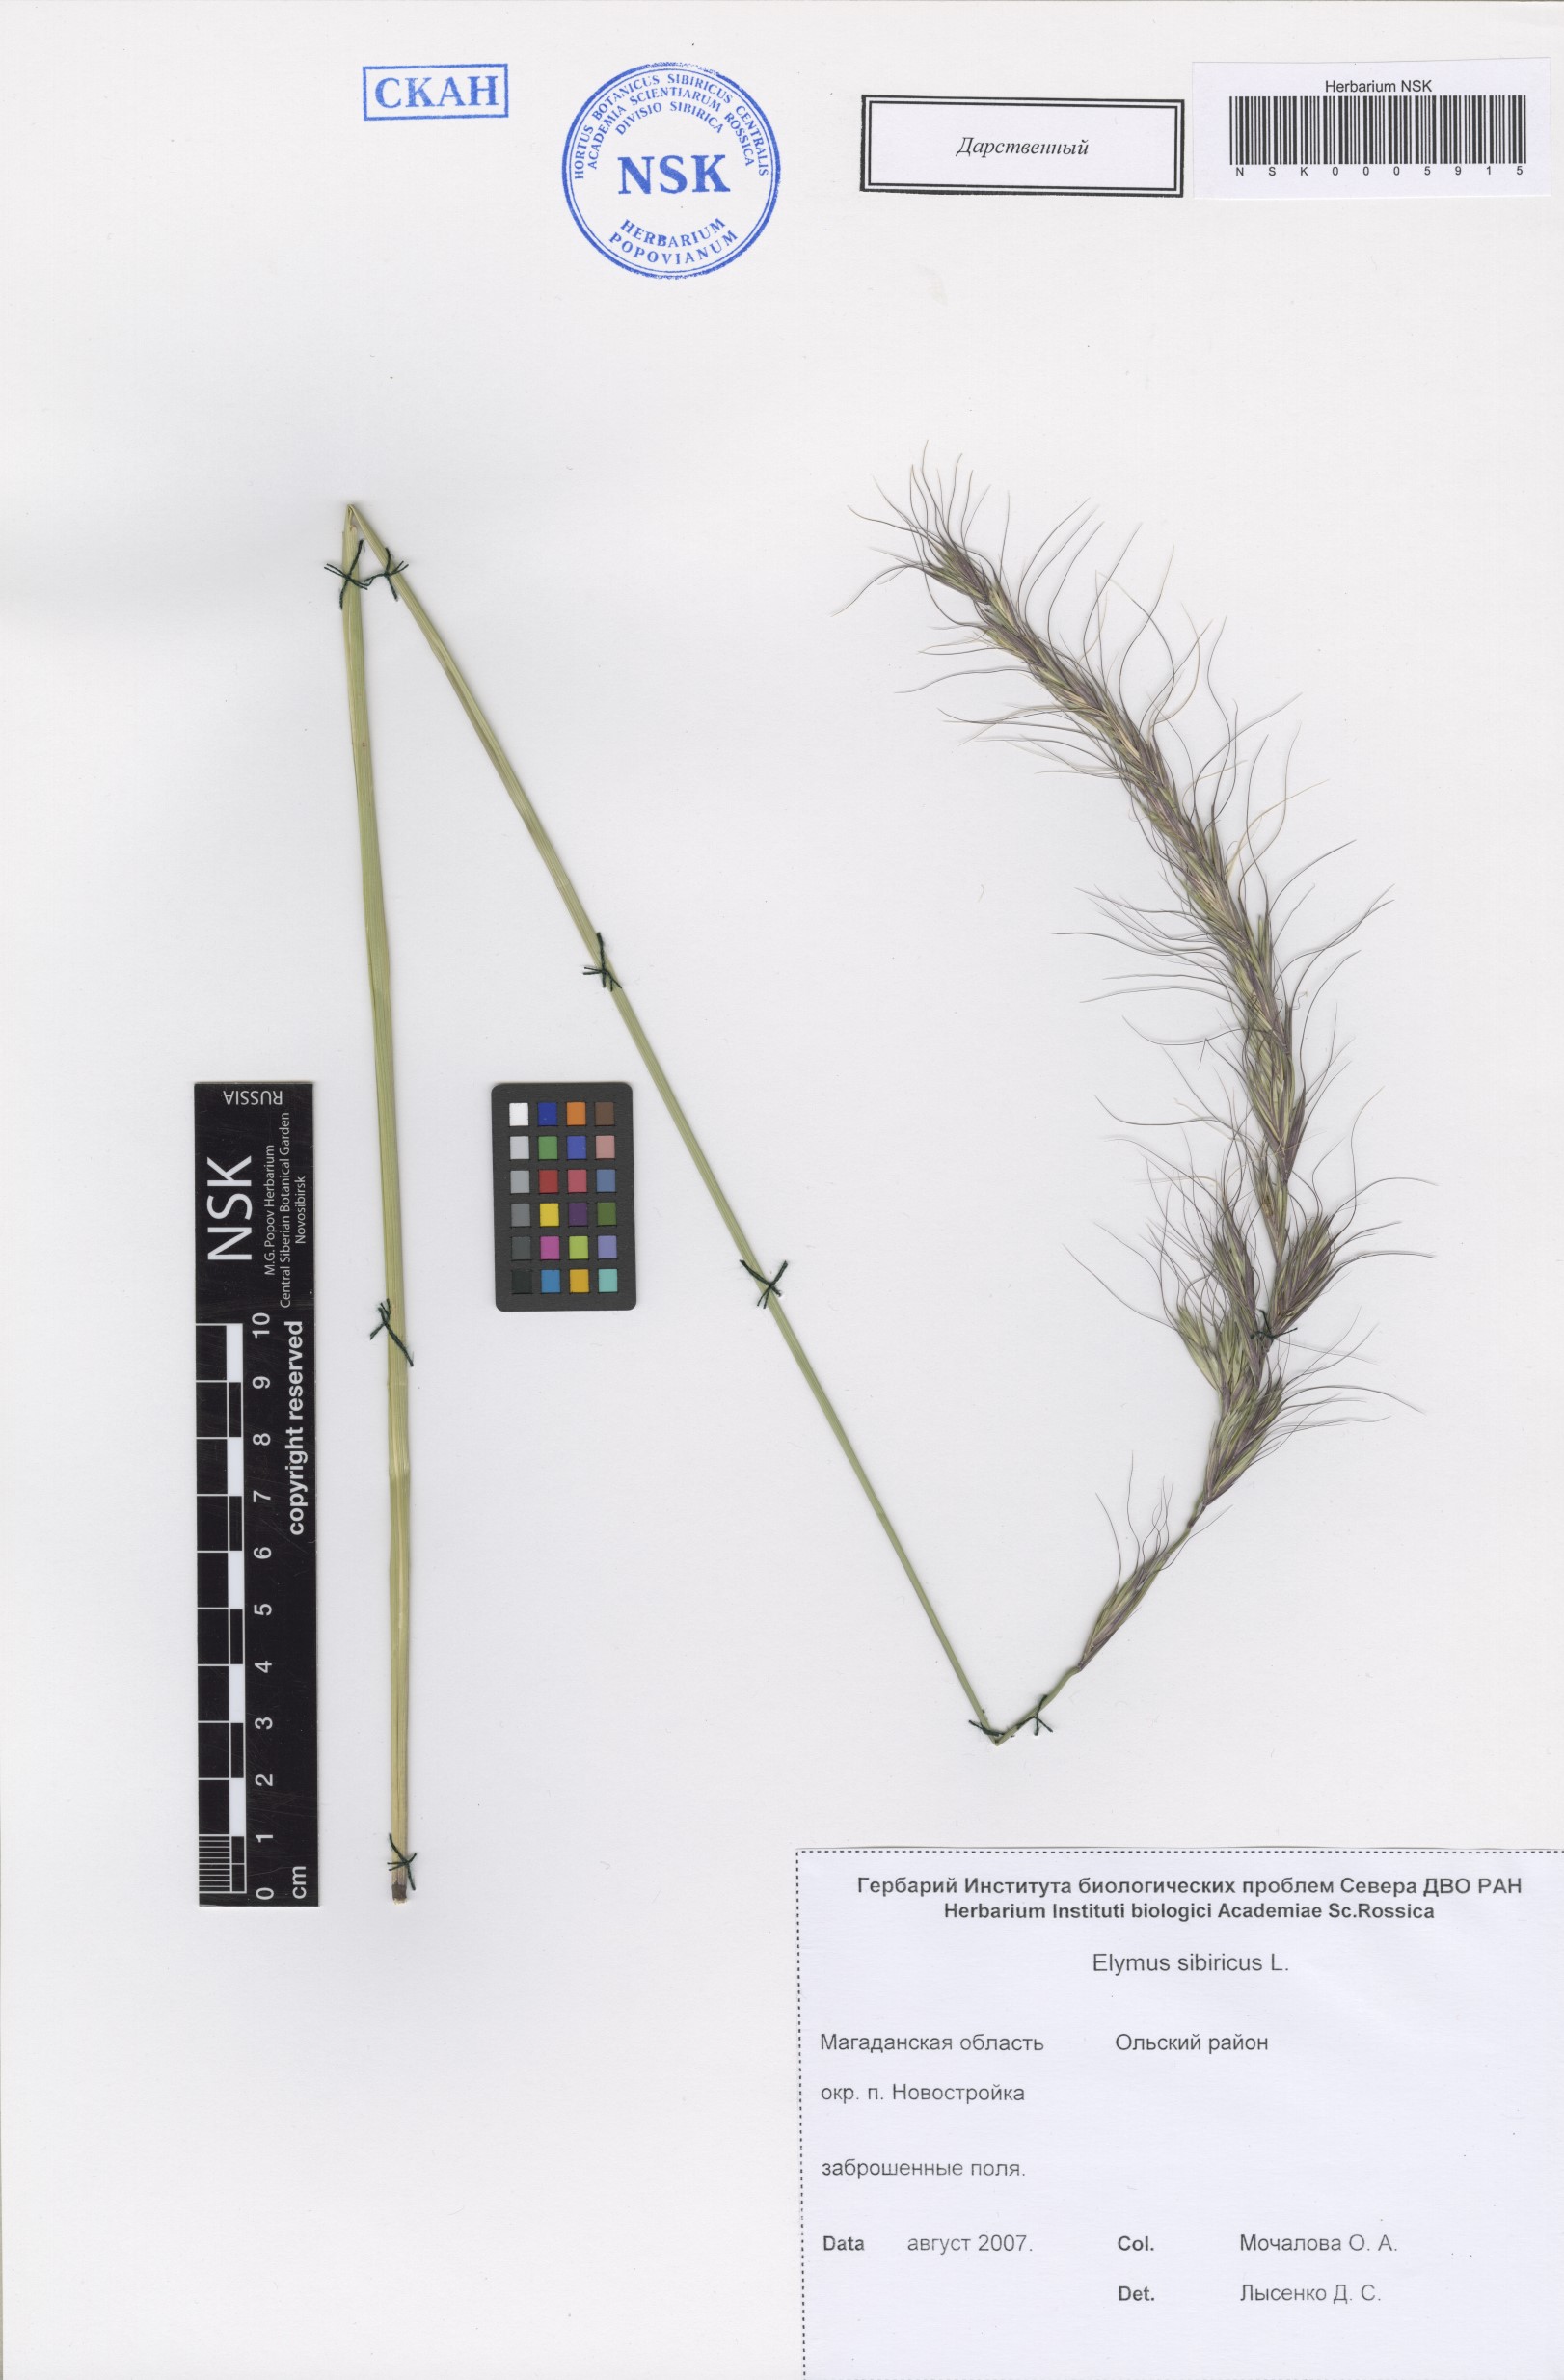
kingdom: Plantae
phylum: Tracheophyta
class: Liliopsida
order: Poales
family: Poaceae
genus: Elymus
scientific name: Elymus sibiricus
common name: Siberian wildrye
